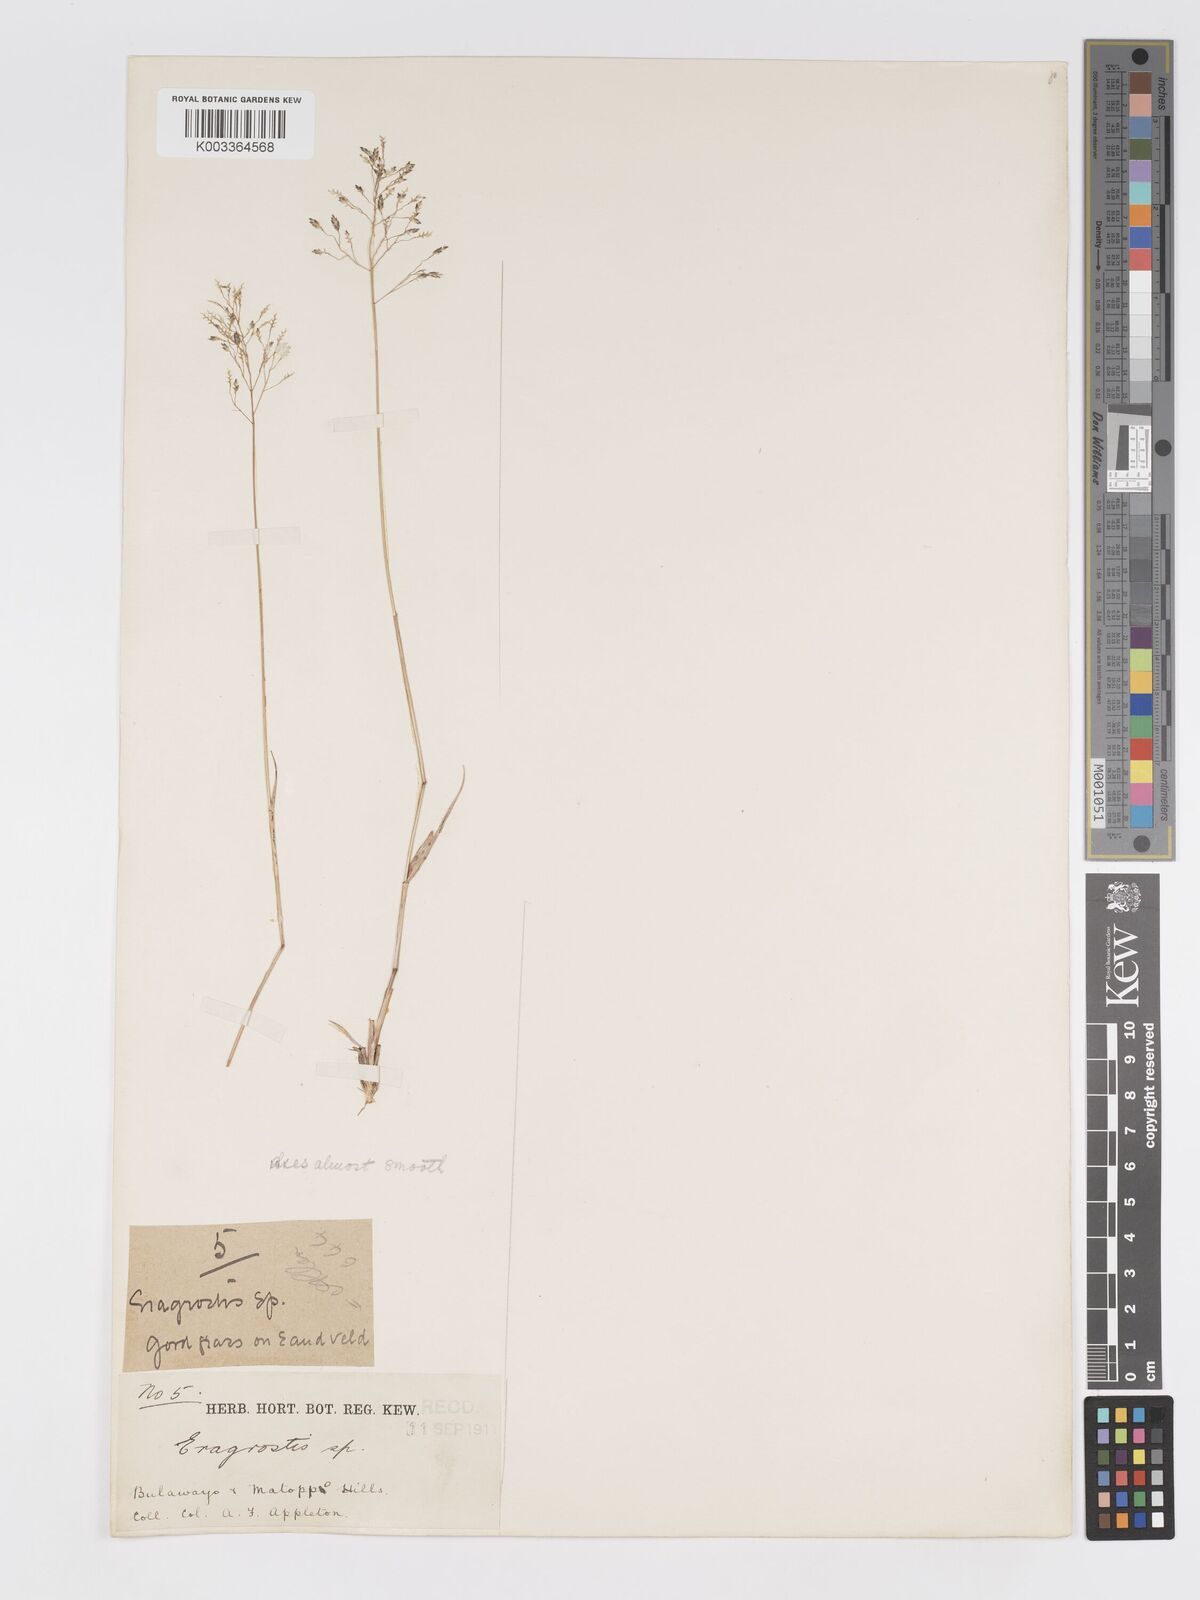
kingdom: Plantae
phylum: Tracheophyta
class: Liliopsida
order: Poales
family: Poaceae
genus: Eragrostis
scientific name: Eragrostis patentipilosa
